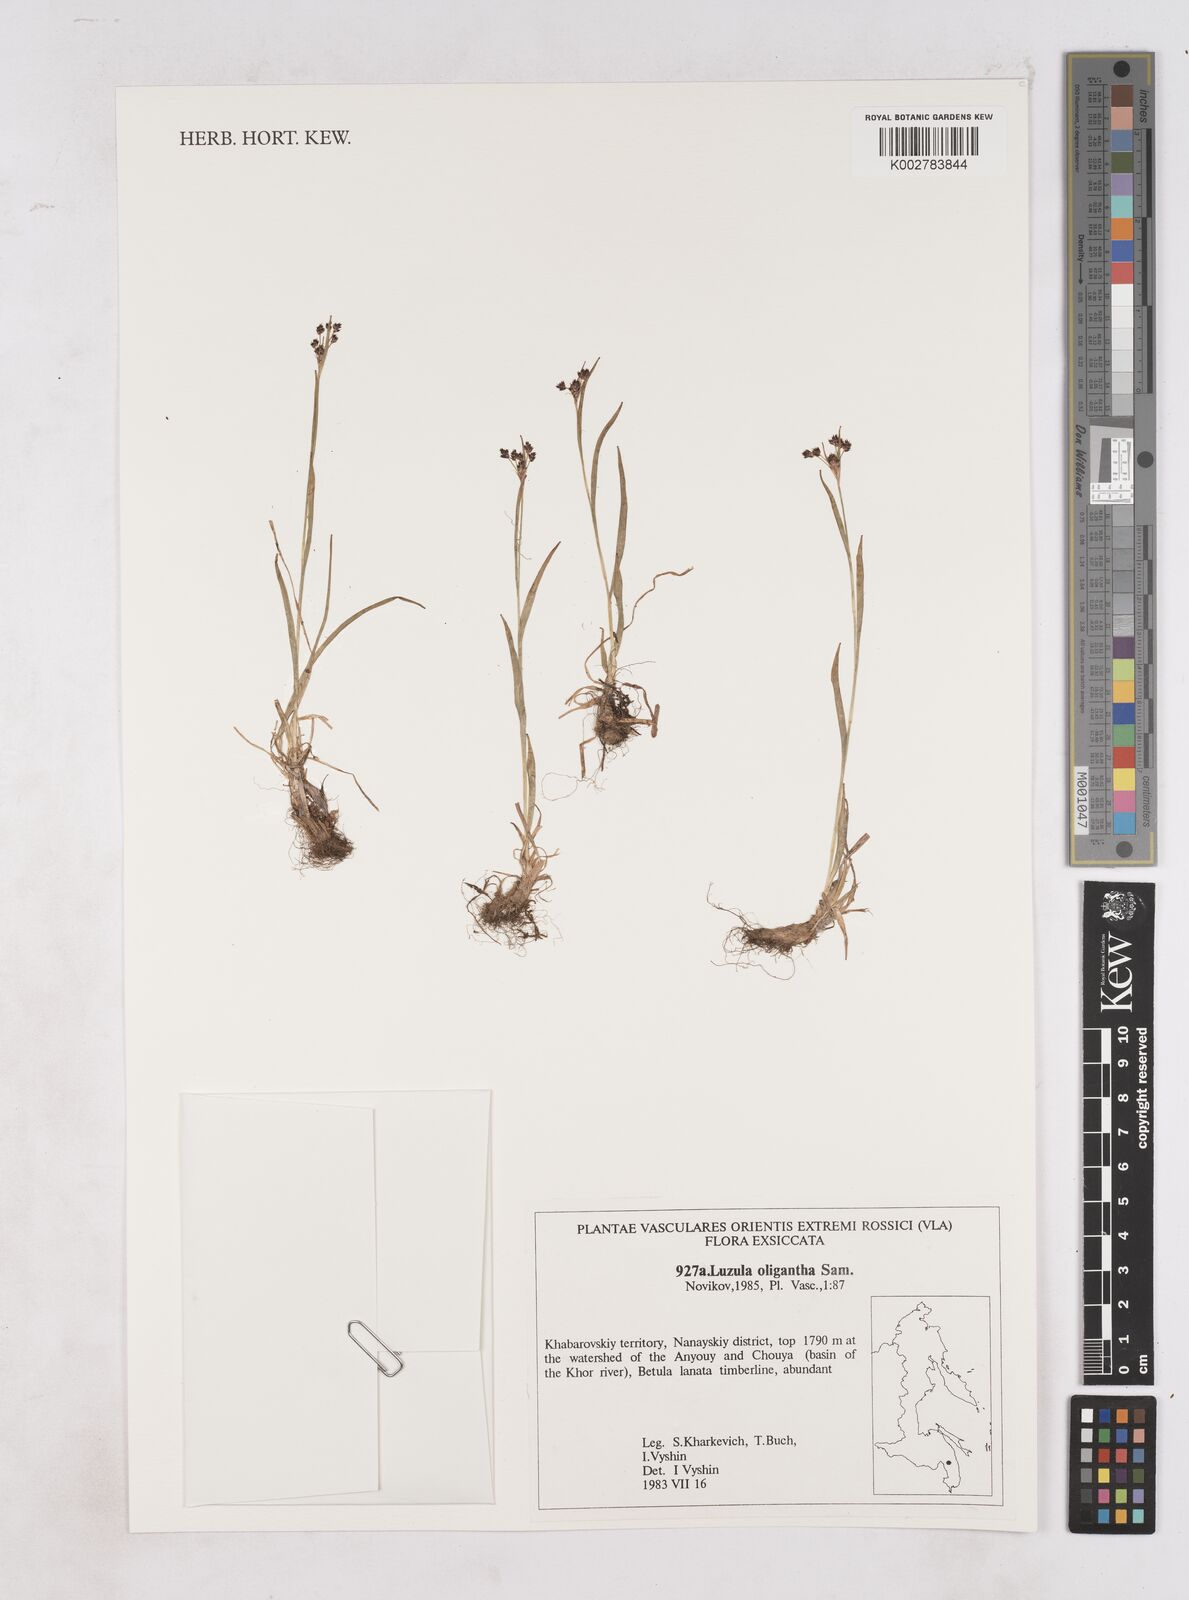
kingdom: Plantae
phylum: Tracheophyta
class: Liliopsida
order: Poales
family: Juncaceae
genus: Luzula
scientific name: Luzula oligantha
